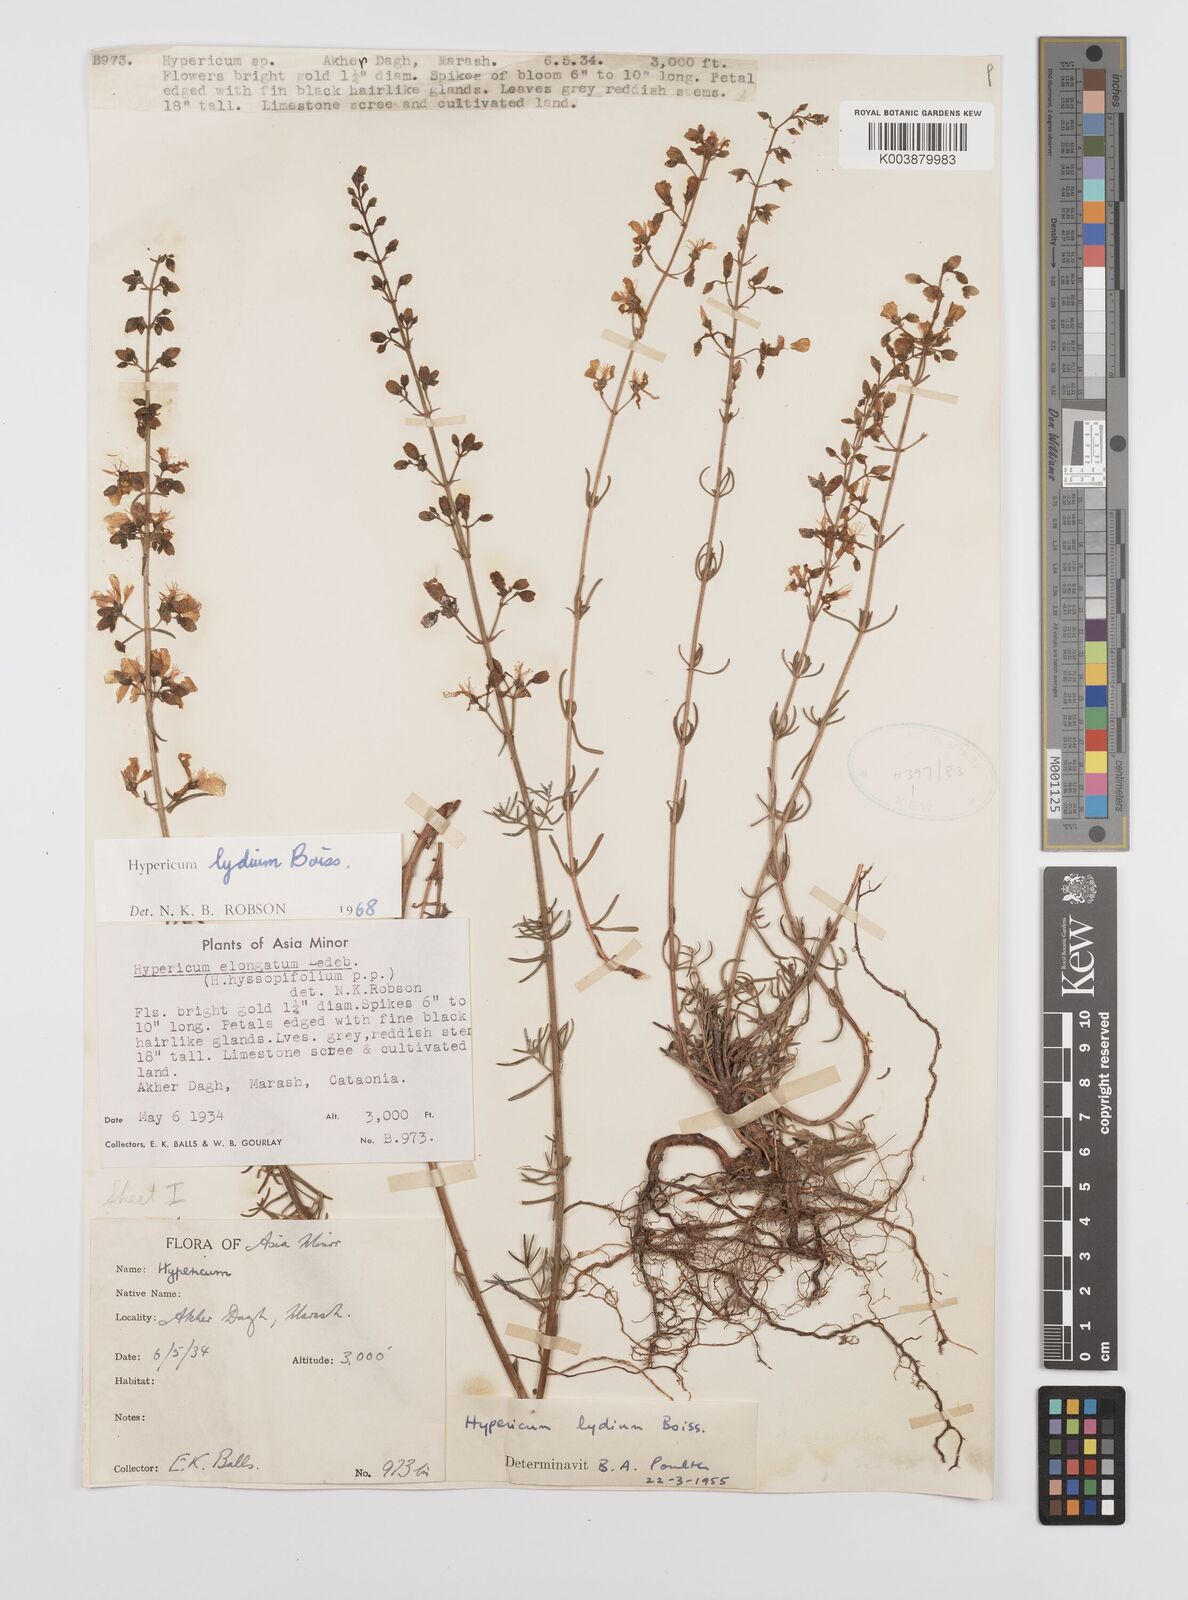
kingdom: Plantae
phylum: Tracheophyta
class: Magnoliopsida
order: Malpighiales
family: Hypericaceae
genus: Hypericum
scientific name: Hypericum lydium
